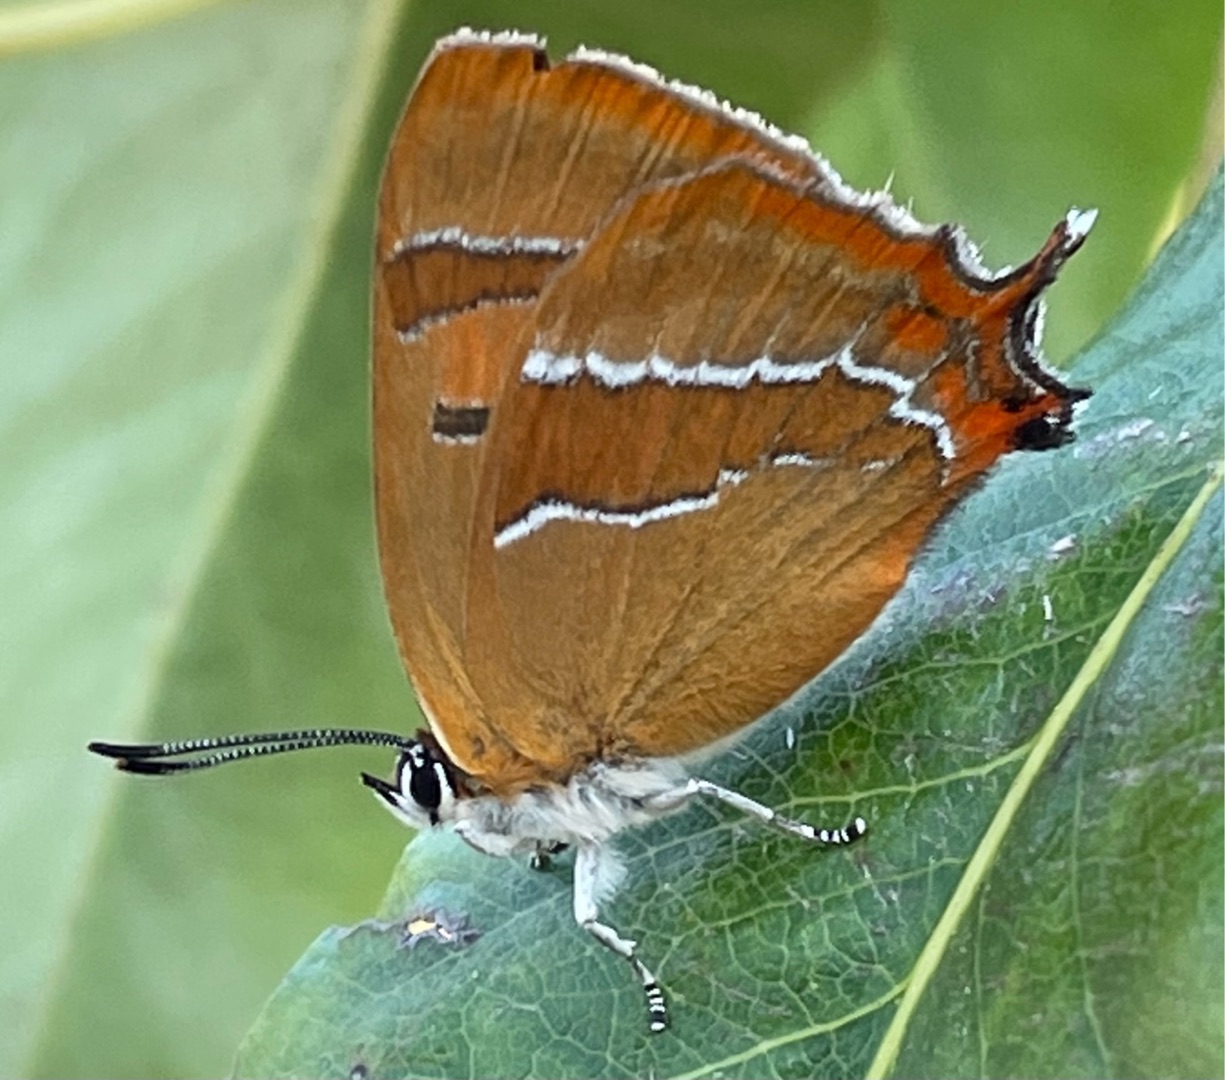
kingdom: Animalia
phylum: Arthropoda
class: Insecta
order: Lepidoptera
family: Lycaenidae
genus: Thecla
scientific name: Thecla betulae
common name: Guldhale
